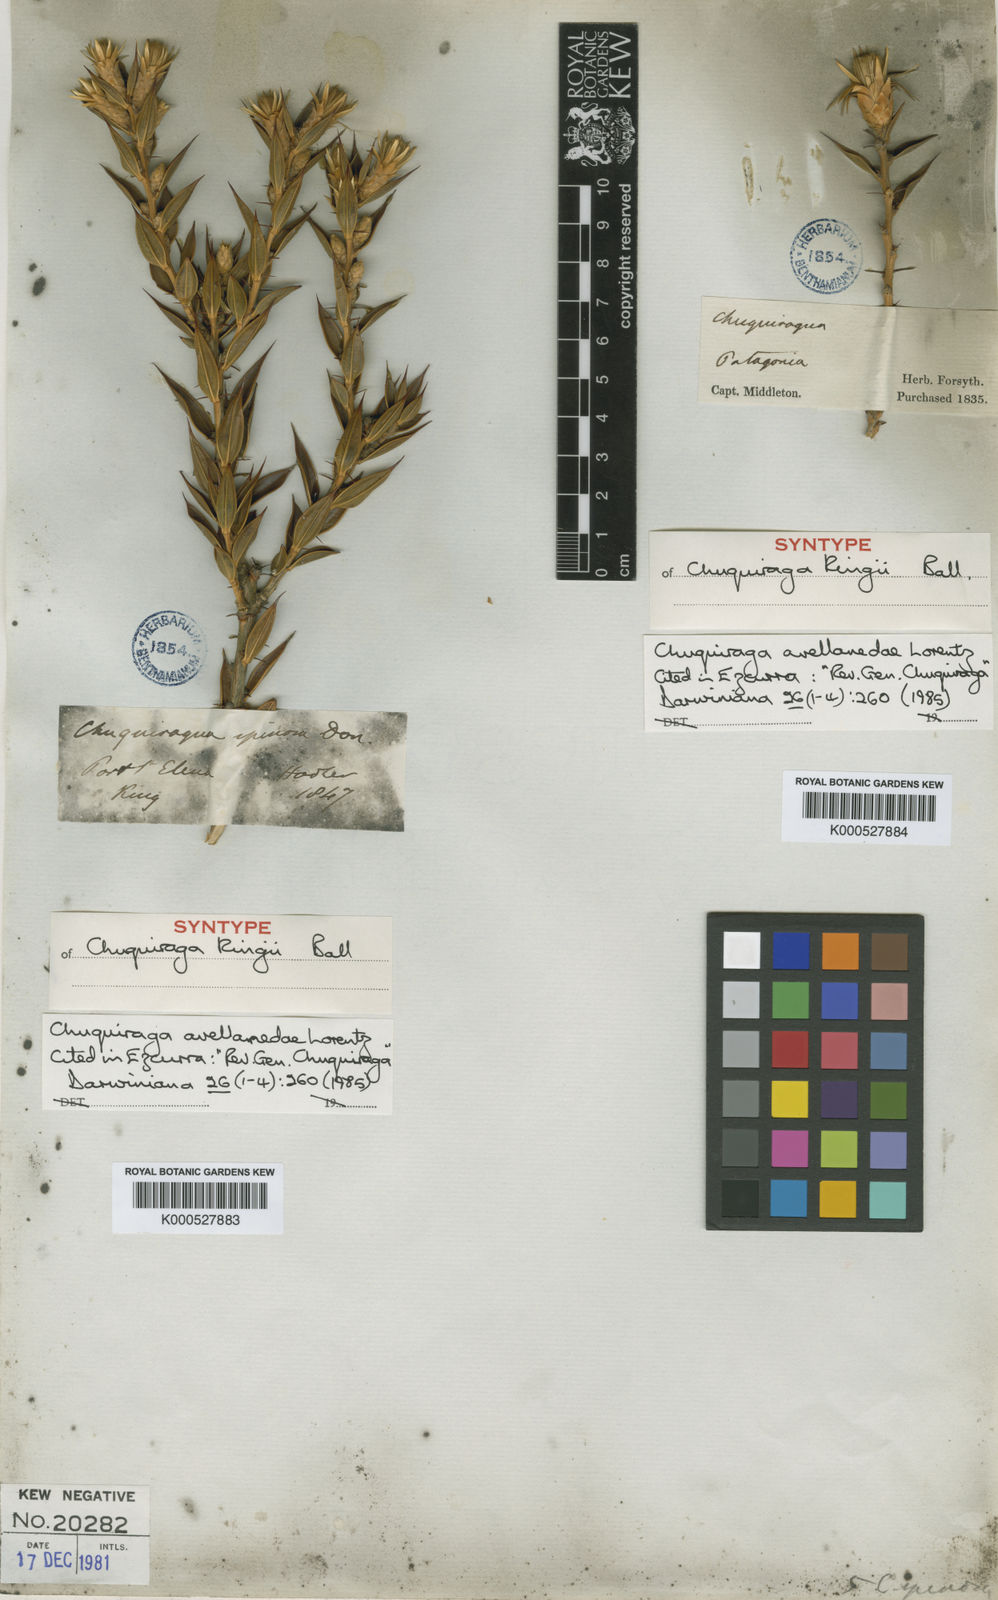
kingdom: Plantae
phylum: Tracheophyta
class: Magnoliopsida
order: Asterales
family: Asteraceae
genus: Chuquiraga
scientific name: Chuquiraga avellanedae
